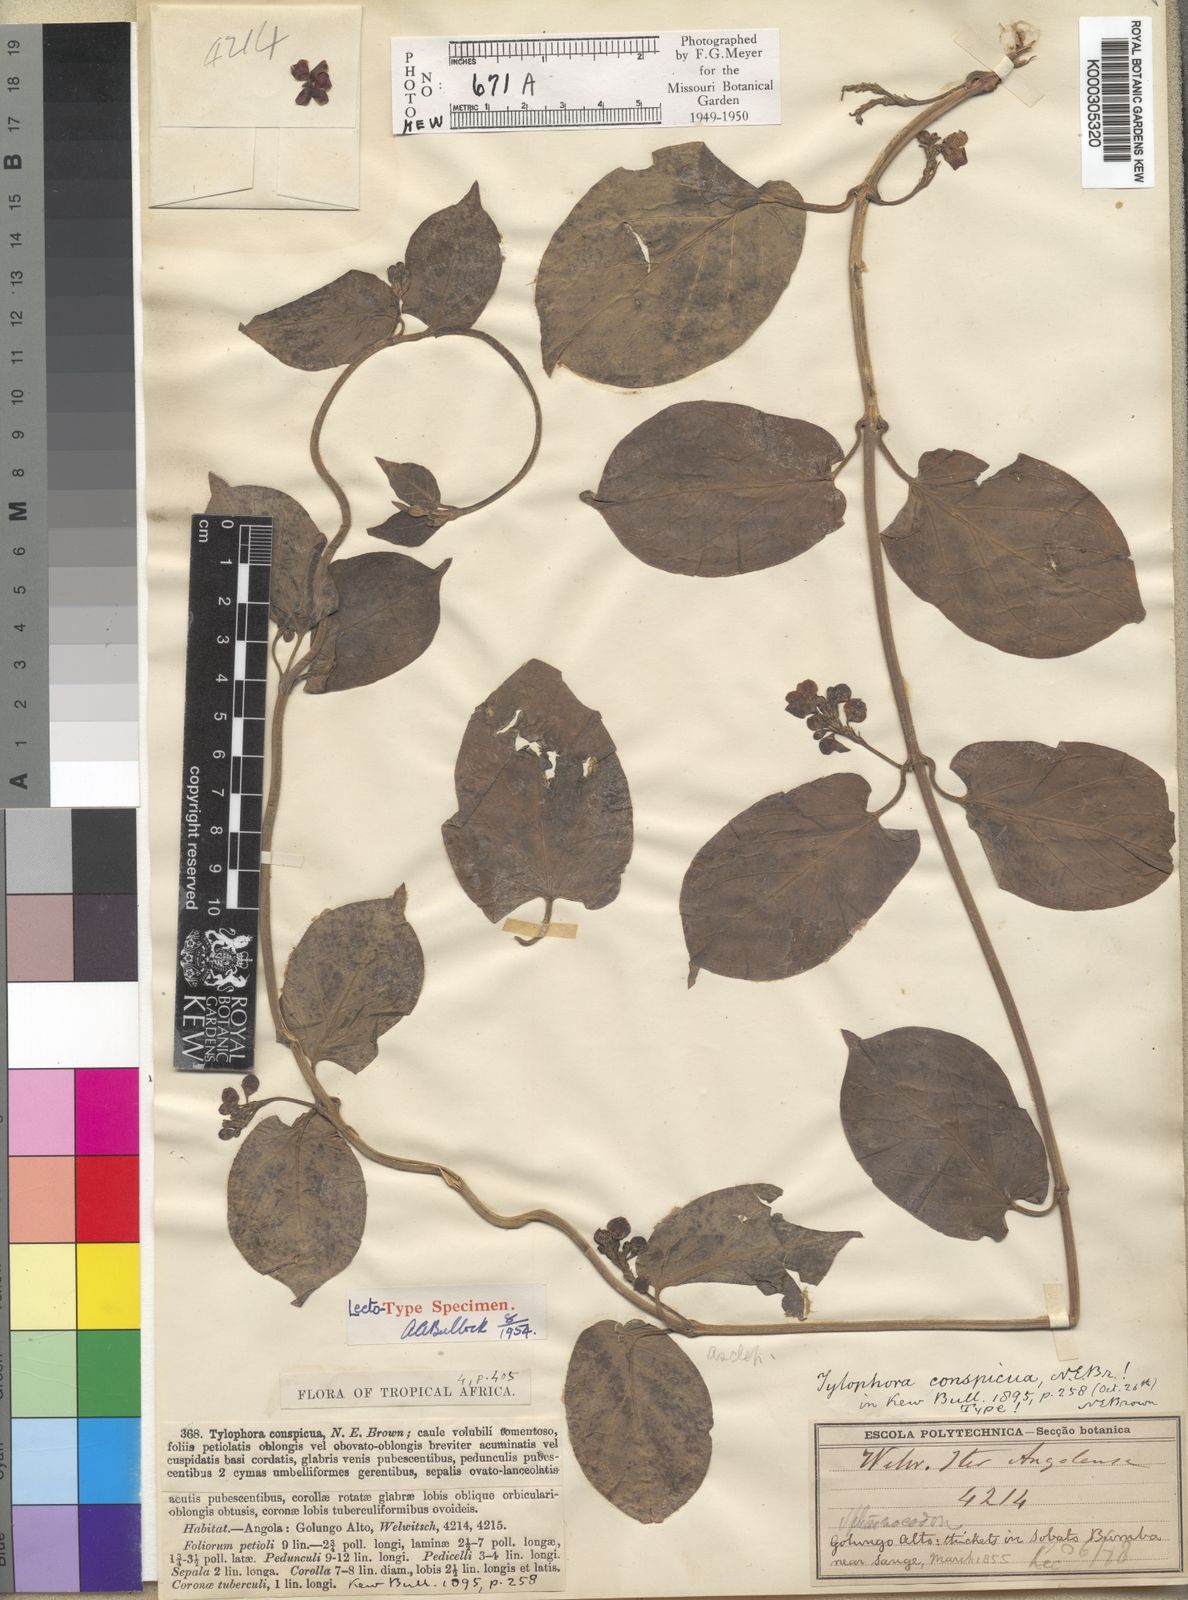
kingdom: Plantae
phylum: Tracheophyta
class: Magnoliopsida
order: Gentianales
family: Apocynaceae
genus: Vincetoxicum
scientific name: Vincetoxicum conspicuum
